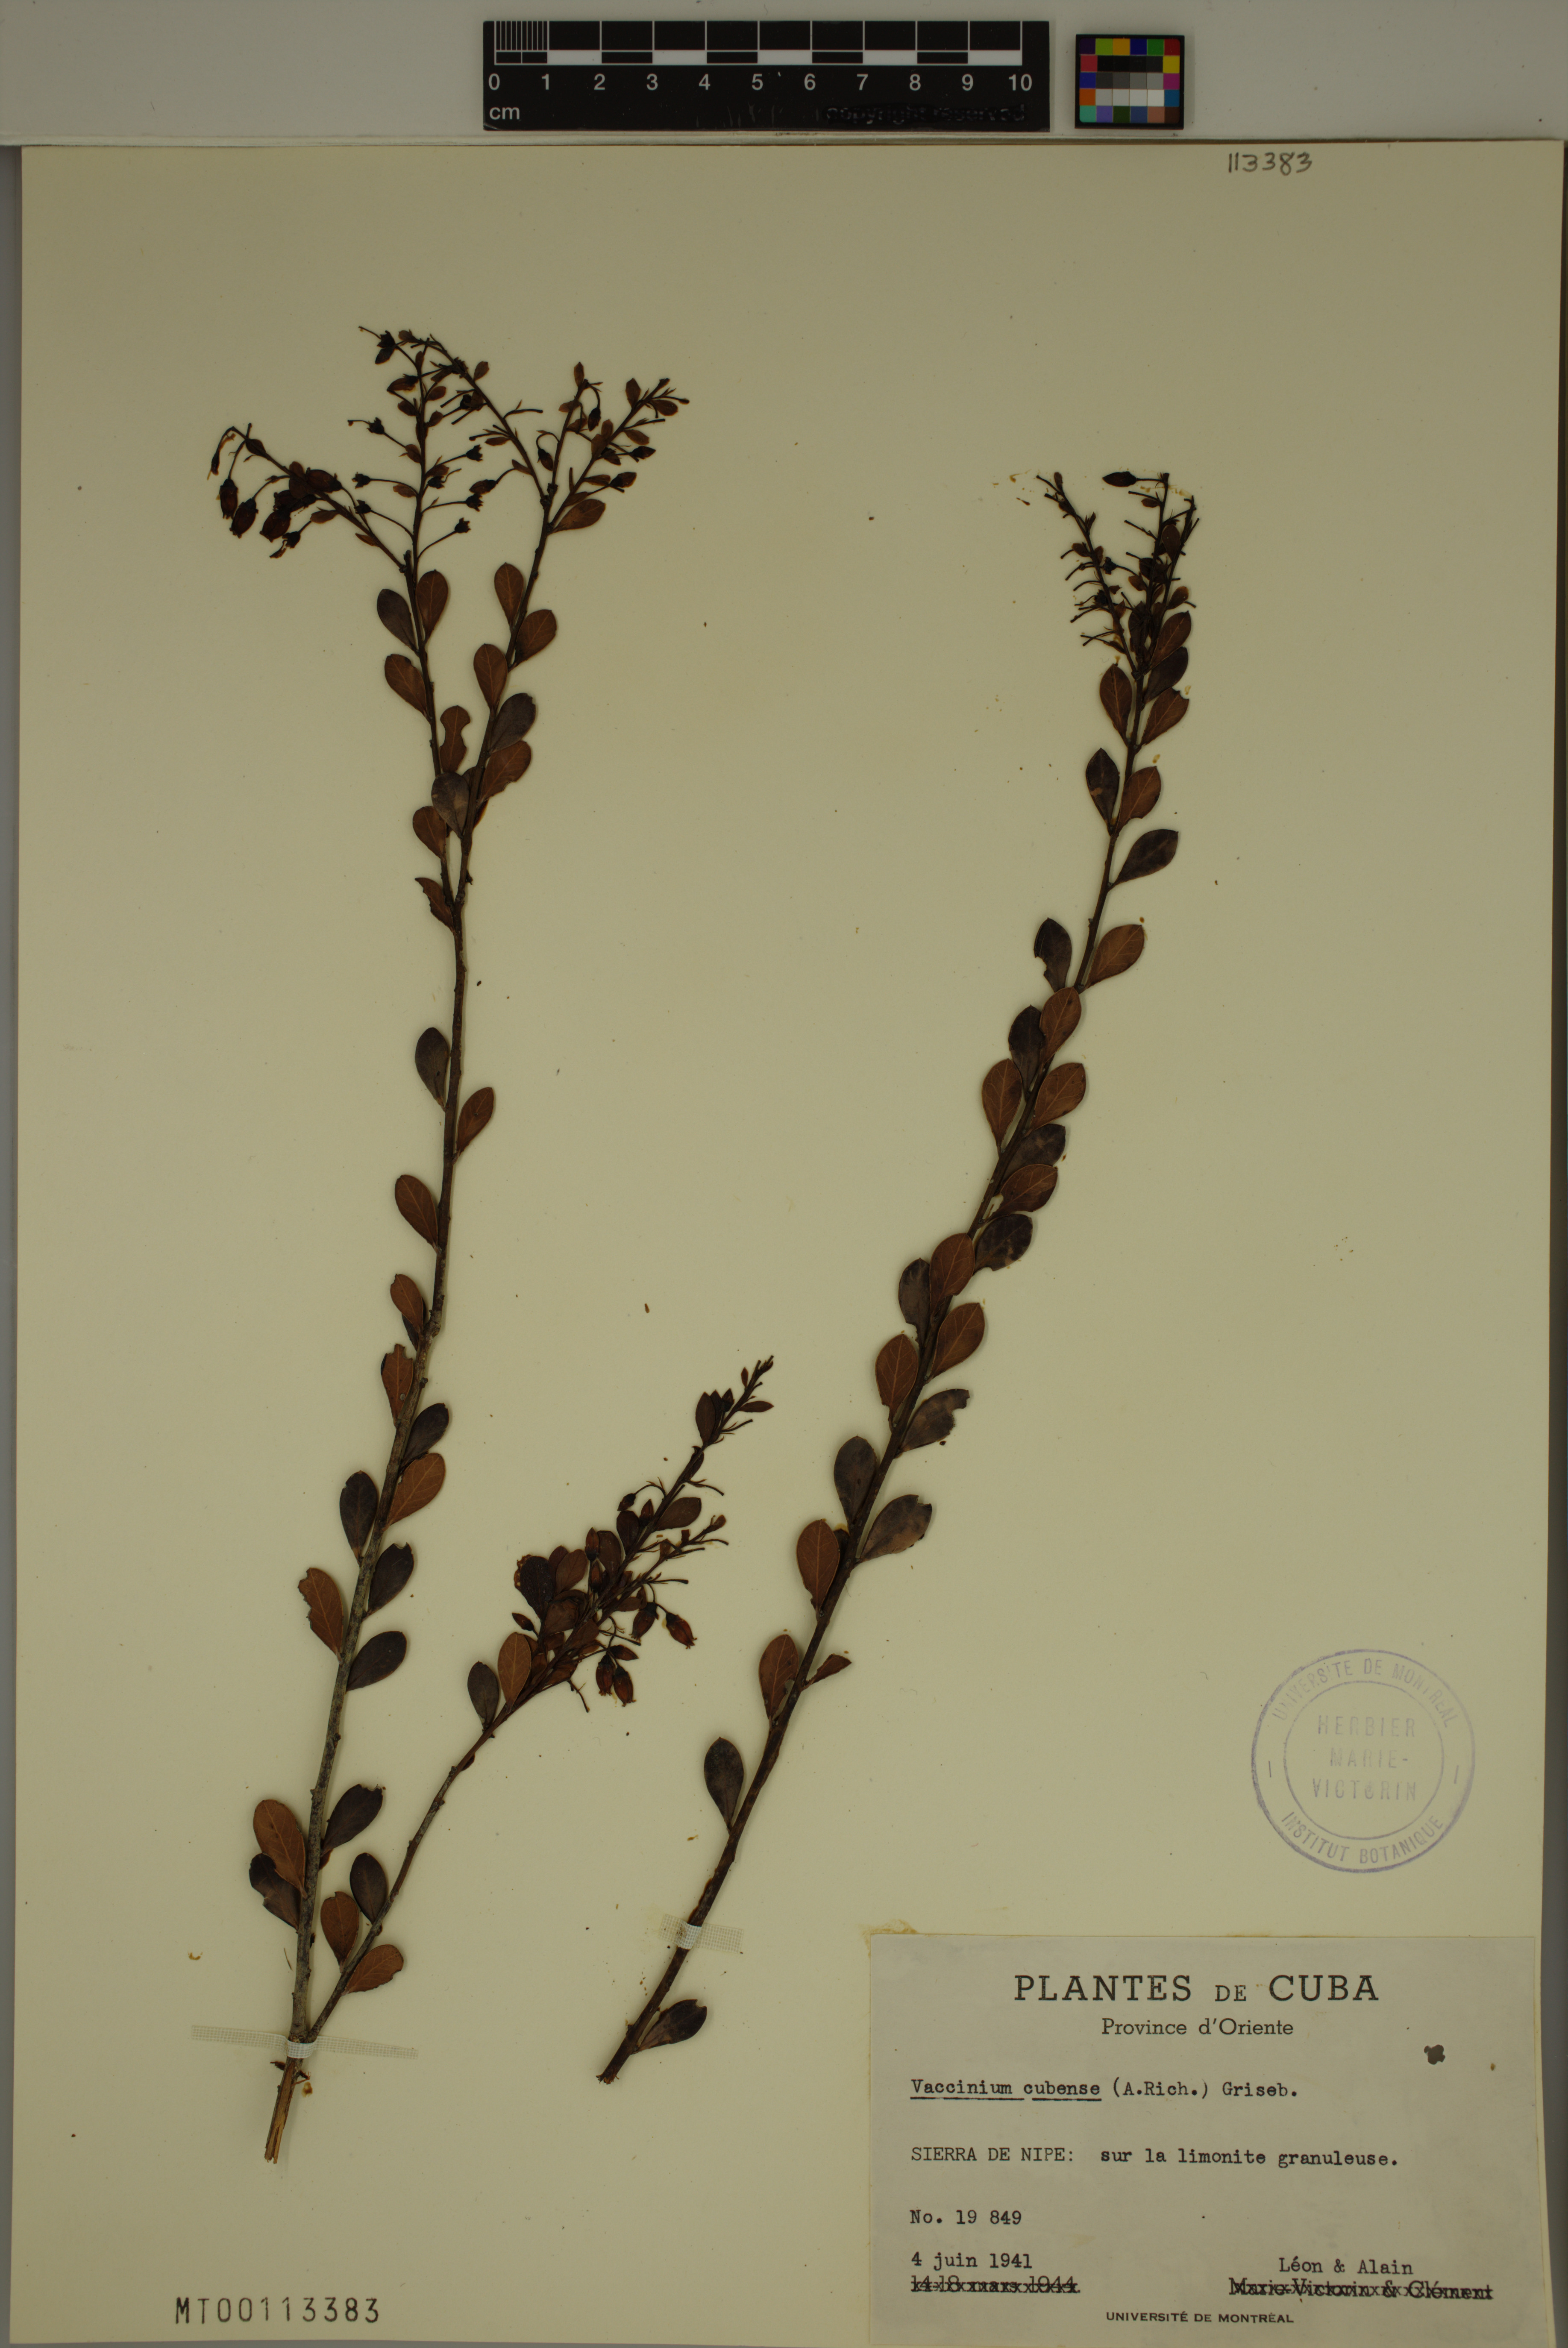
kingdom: Plantae
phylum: Tracheophyta
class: Magnoliopsida
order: Ericales
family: Ericaceae
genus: Vaccinium
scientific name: Vaccinium cubense
